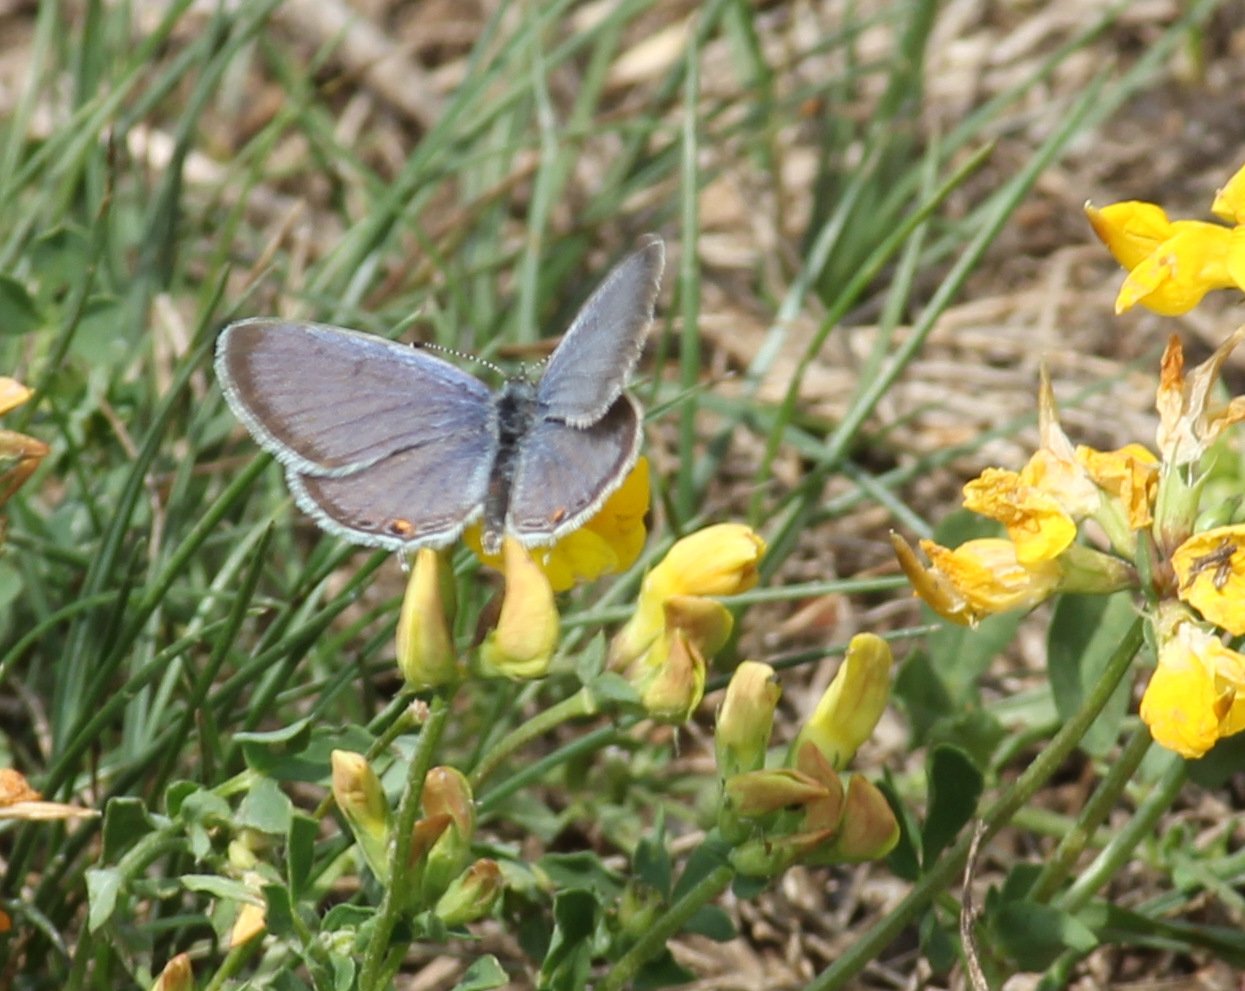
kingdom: Animalia
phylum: Arthropoda
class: Insecta
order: Lepidoptera
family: Lycaenidae
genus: Elkalyce
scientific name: Elkalyce comyntas
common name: Eastern Tailed-Blue
